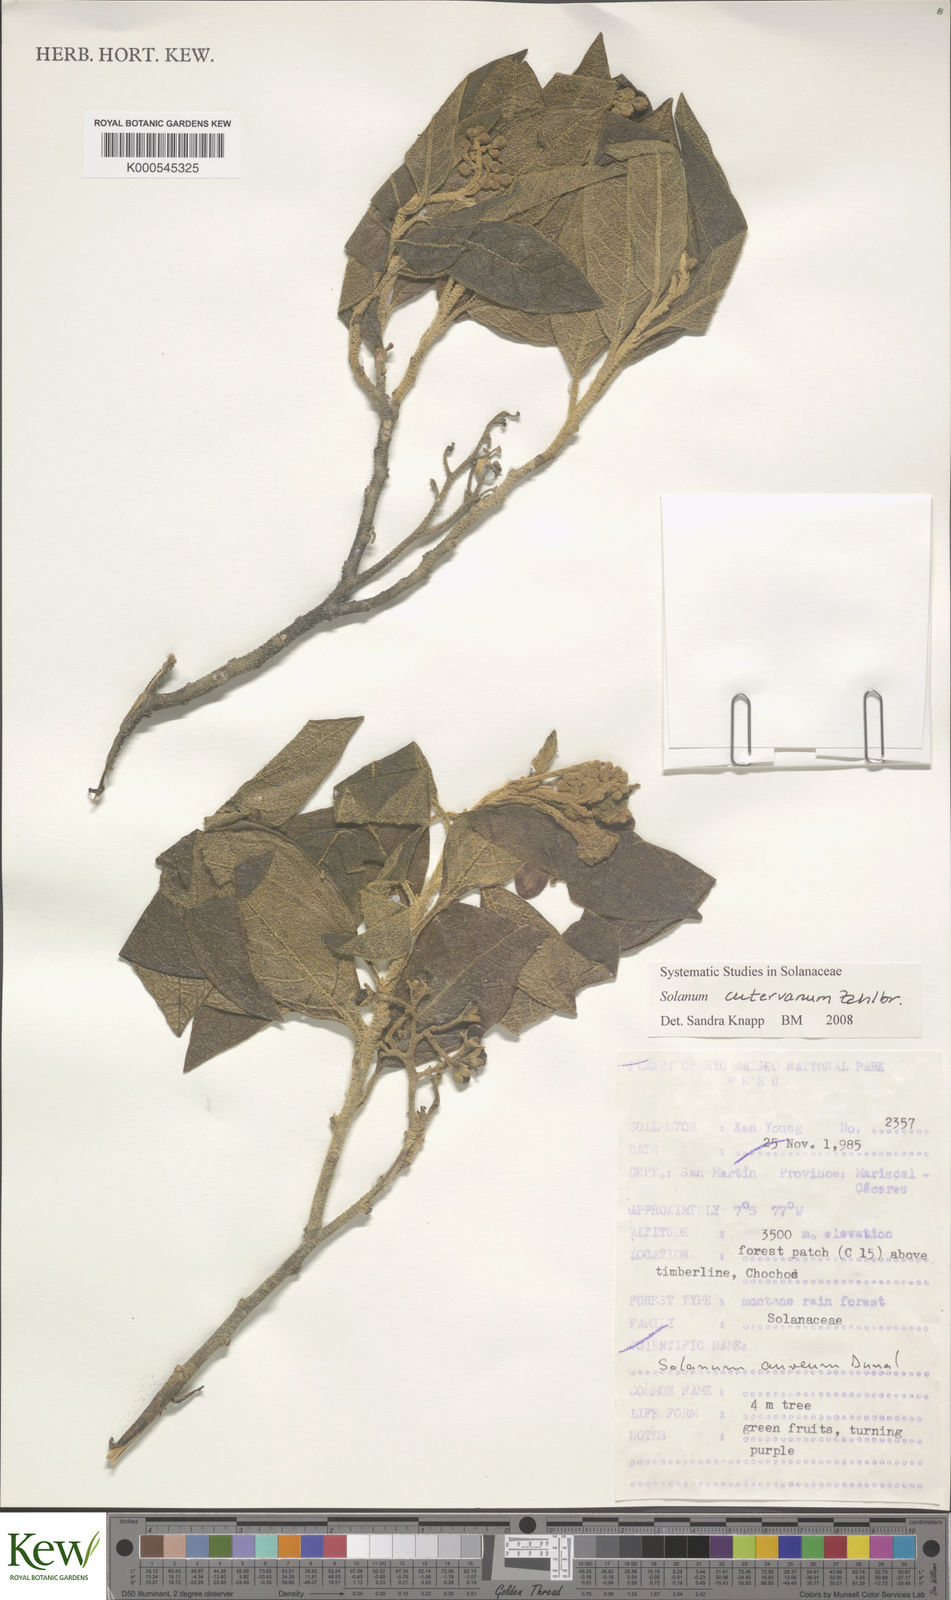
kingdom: Plantae
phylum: Tracheophyta
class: Magnoliopsida
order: Solanales
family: Solanaceae
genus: Solanum
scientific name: Solanum cutervanum
